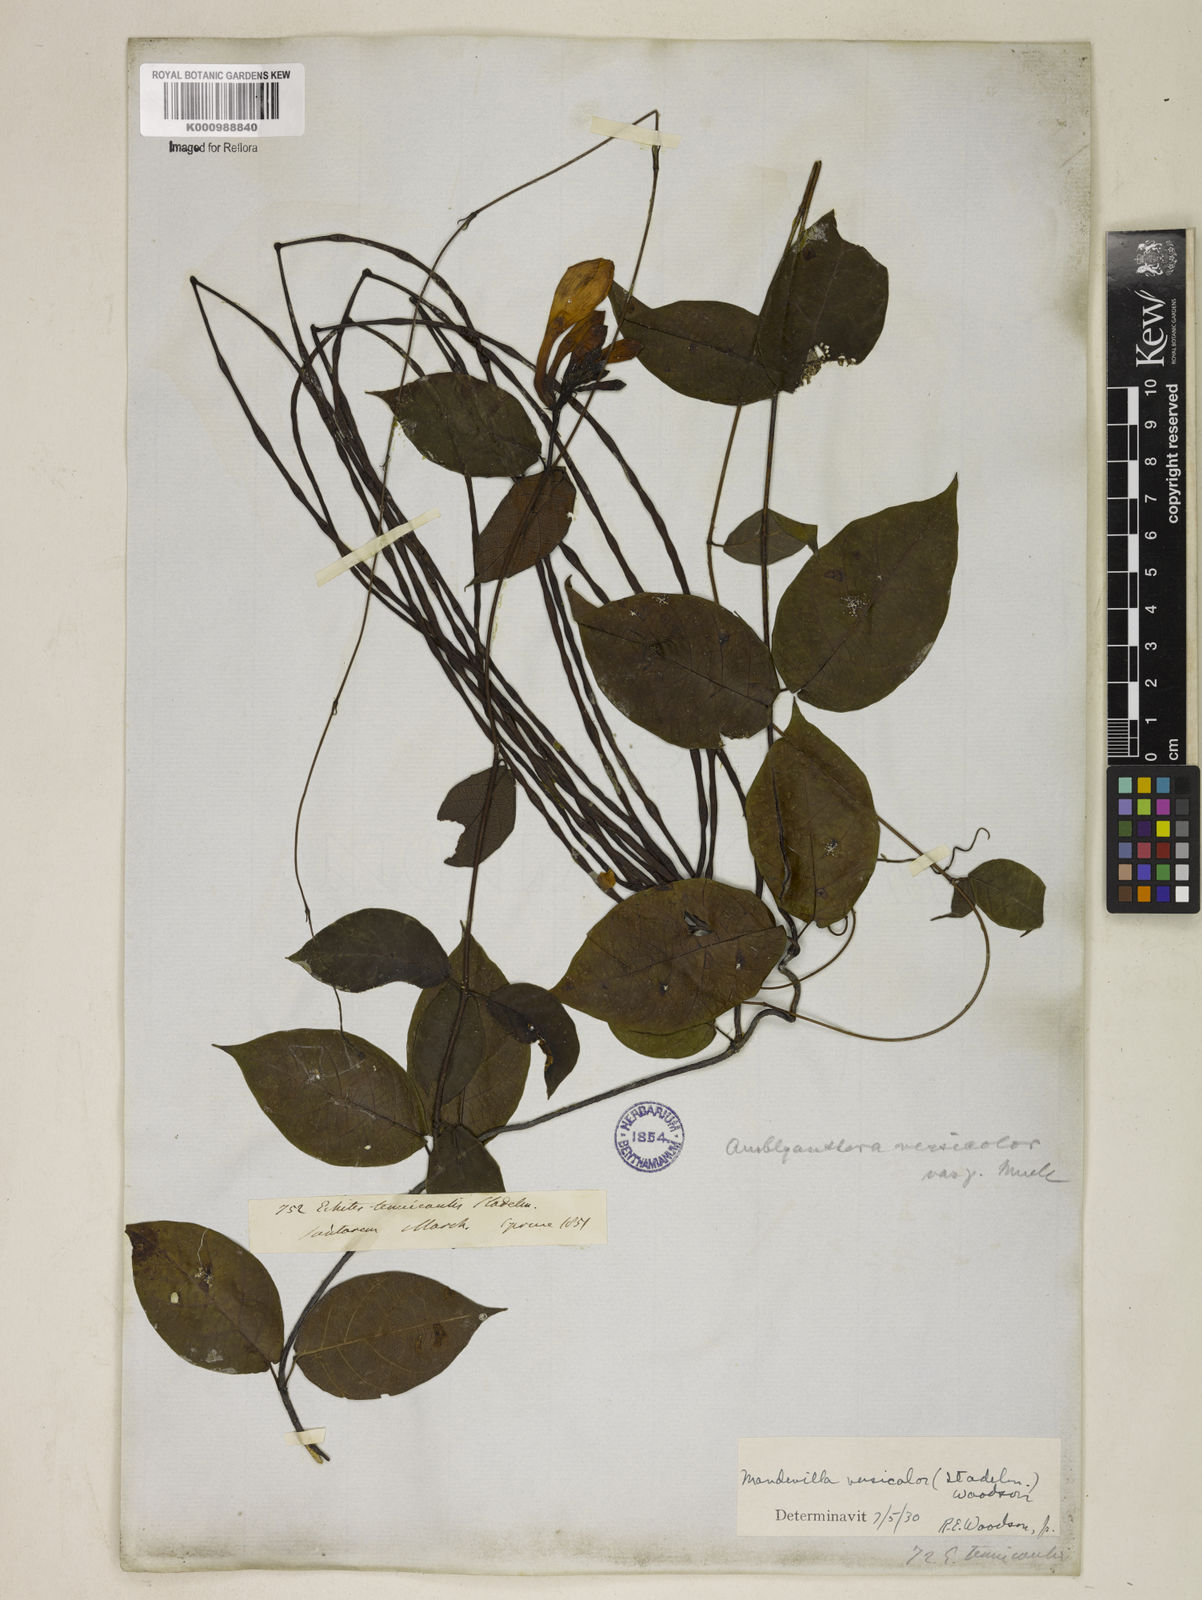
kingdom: Plantae
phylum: Tracheophyta
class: Magnoliopsida
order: Gentianales
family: Apocynaceae
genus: Mandevilla
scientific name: Mandevilla scabra
